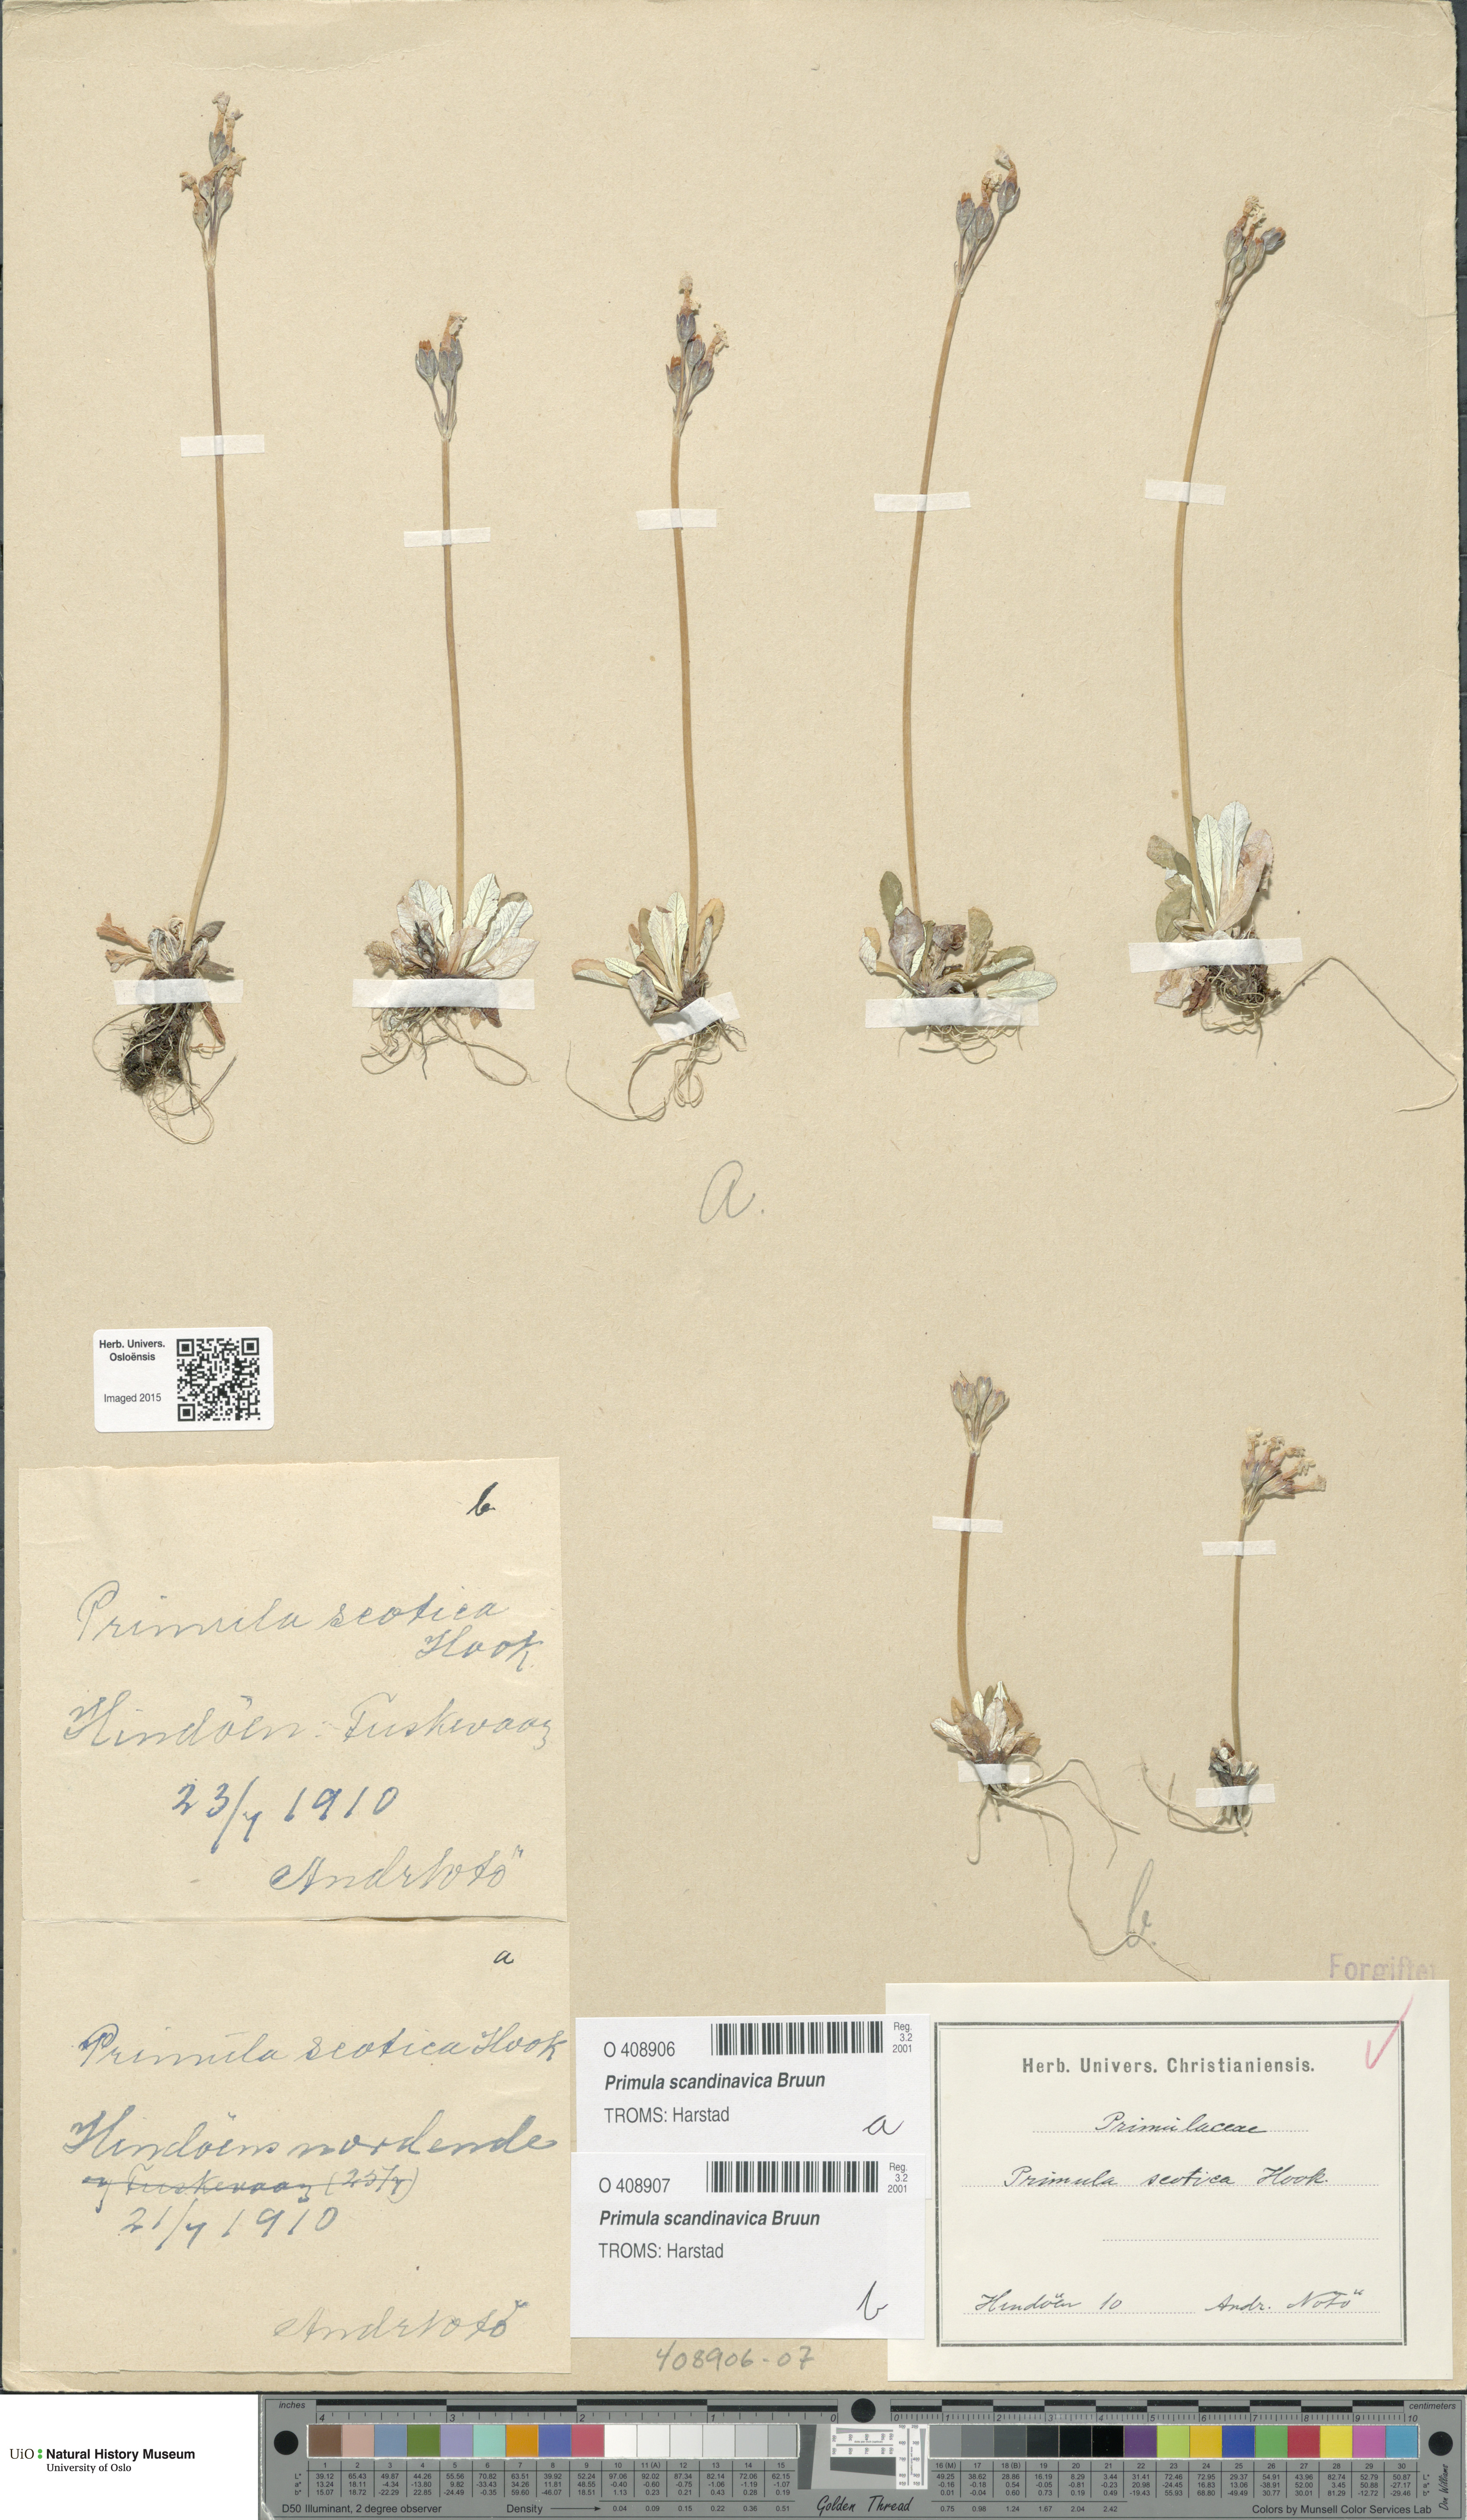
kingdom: Plantae
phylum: Tracheophyta
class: Magnoliopsida
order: Ericales
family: Primulaceae
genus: Primula
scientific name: Primula scandinavica
